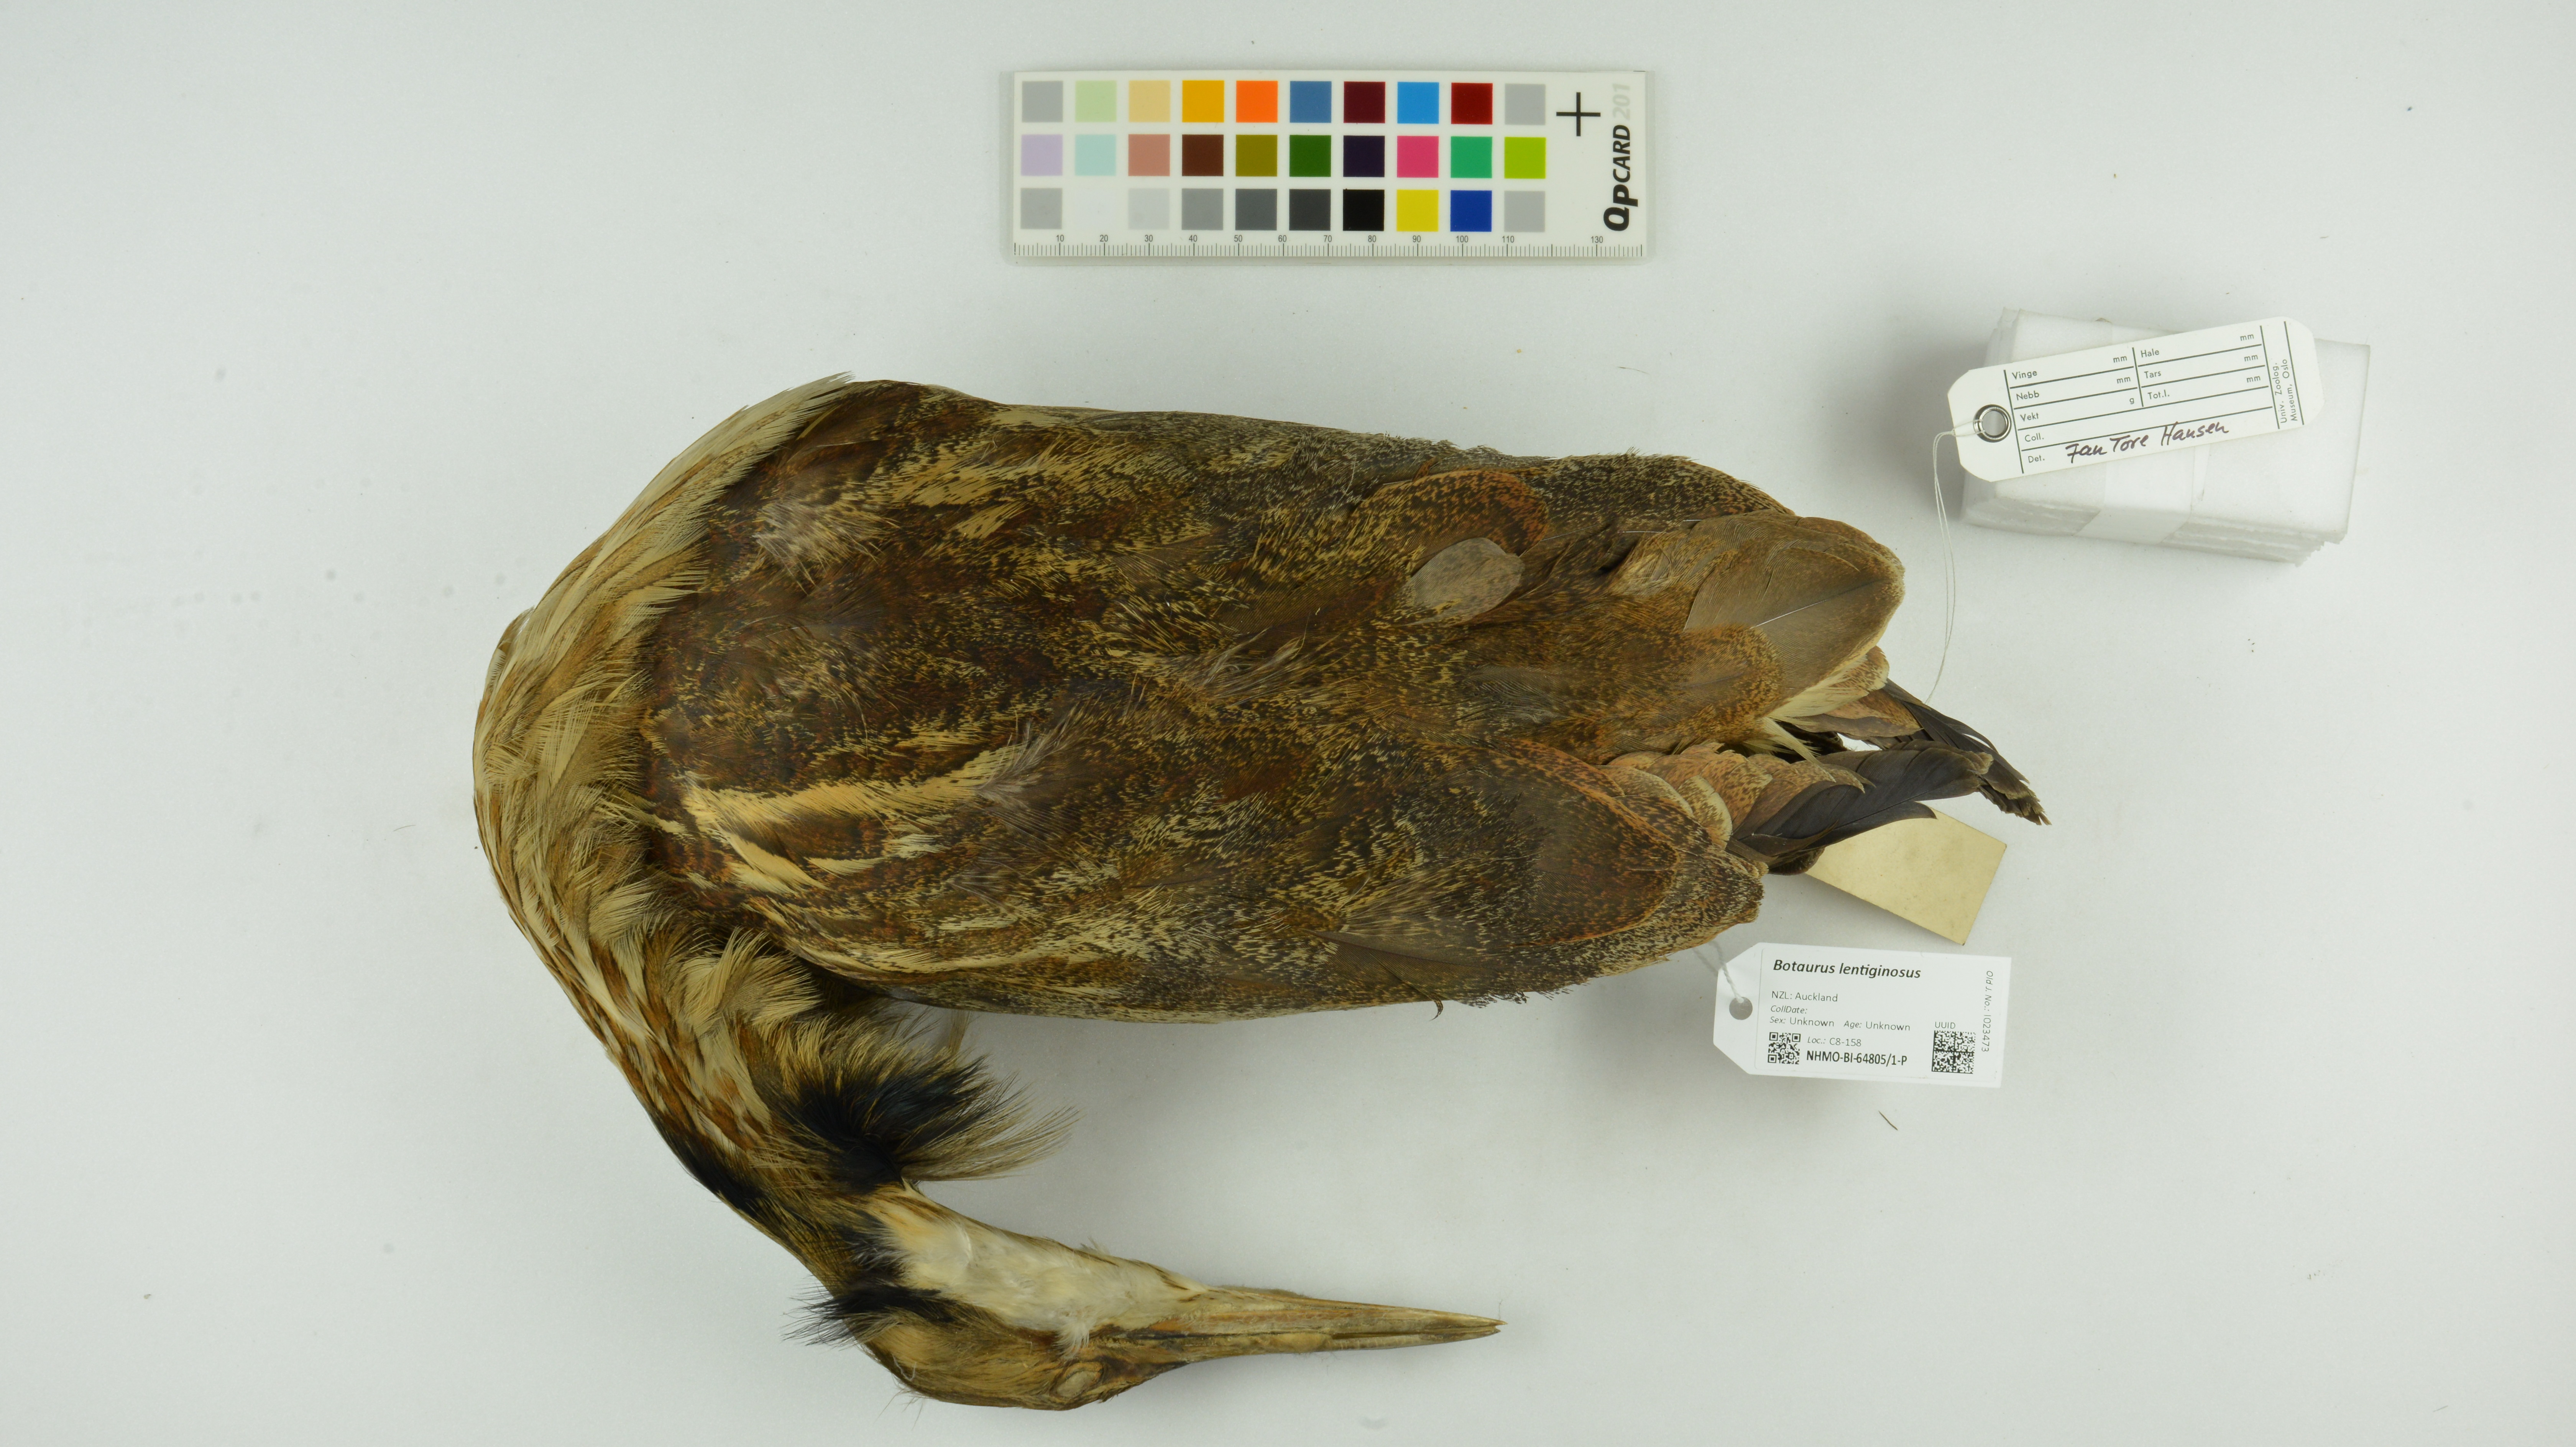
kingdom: Animalia
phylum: Chordata
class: Aves
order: Pelecaniformes
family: Ardeidae
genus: Botaurus
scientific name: Botaurus lentiginosus
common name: American bittern
